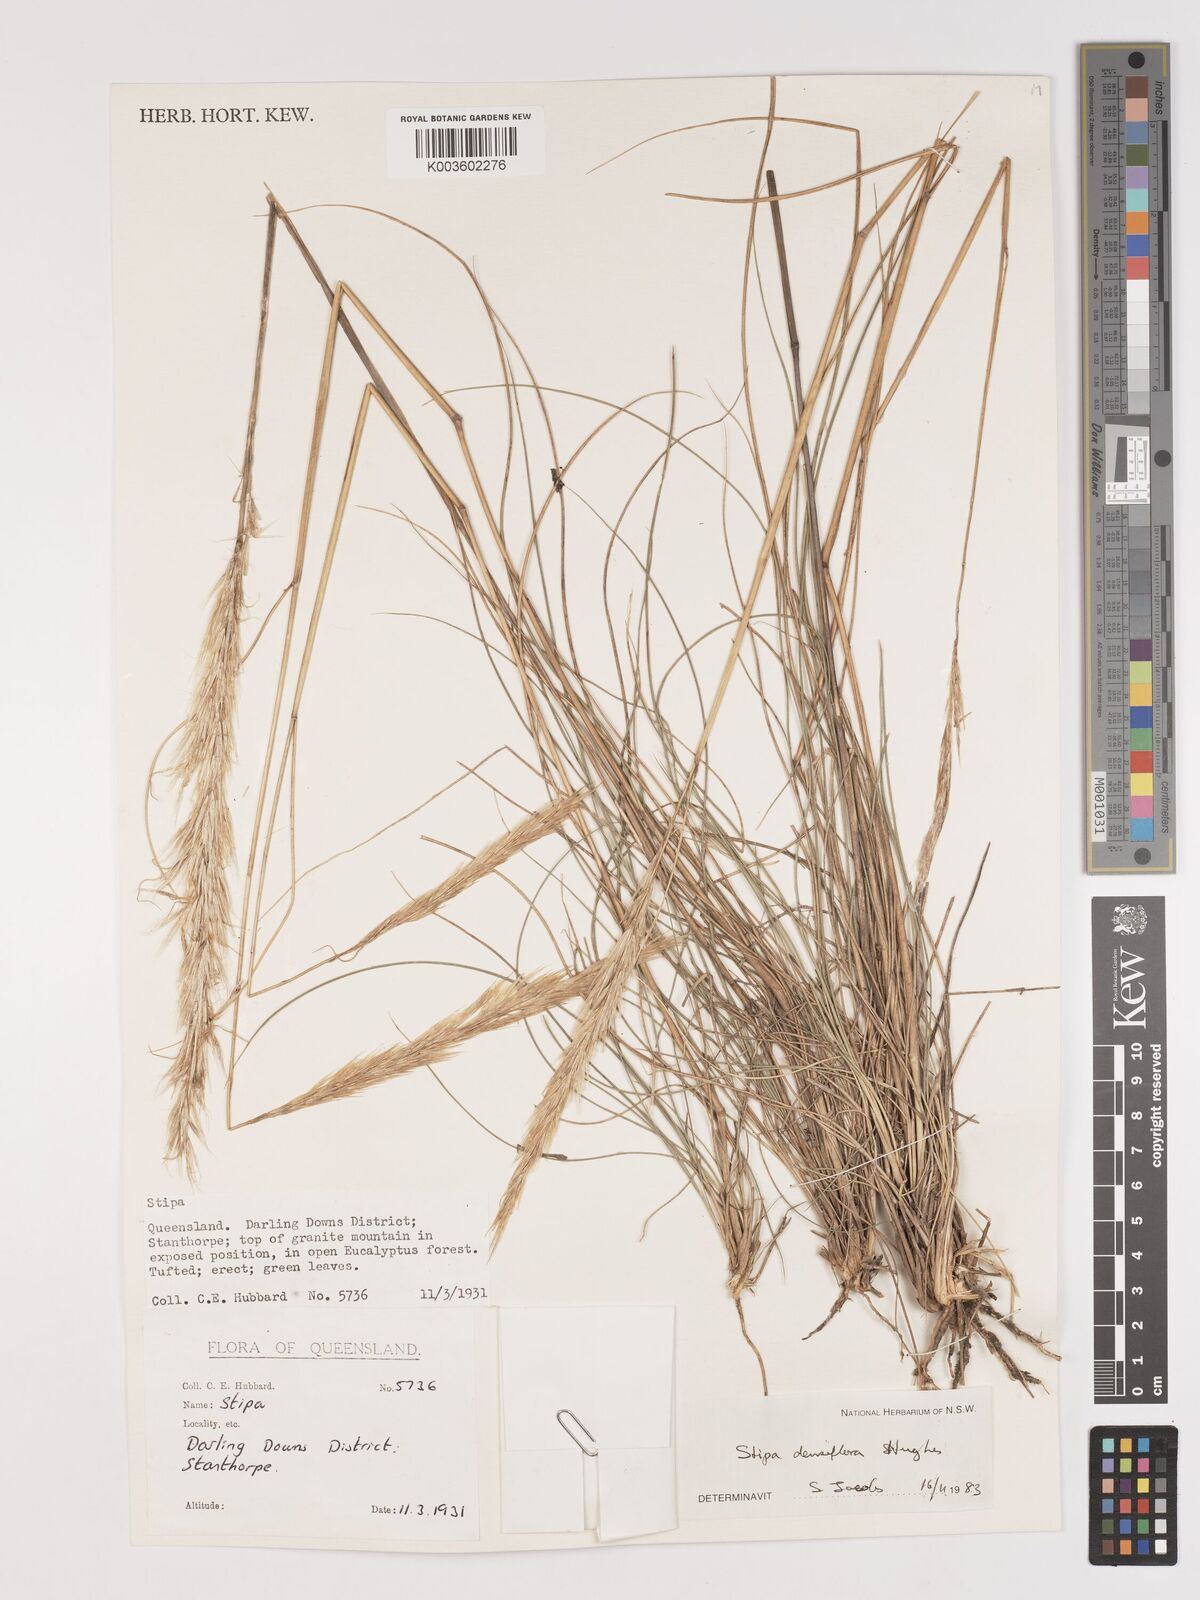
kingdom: Plantae
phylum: Tracheophyta
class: Liliopsida
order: Poales
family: Poaceae
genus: Stipa
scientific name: Stipa
